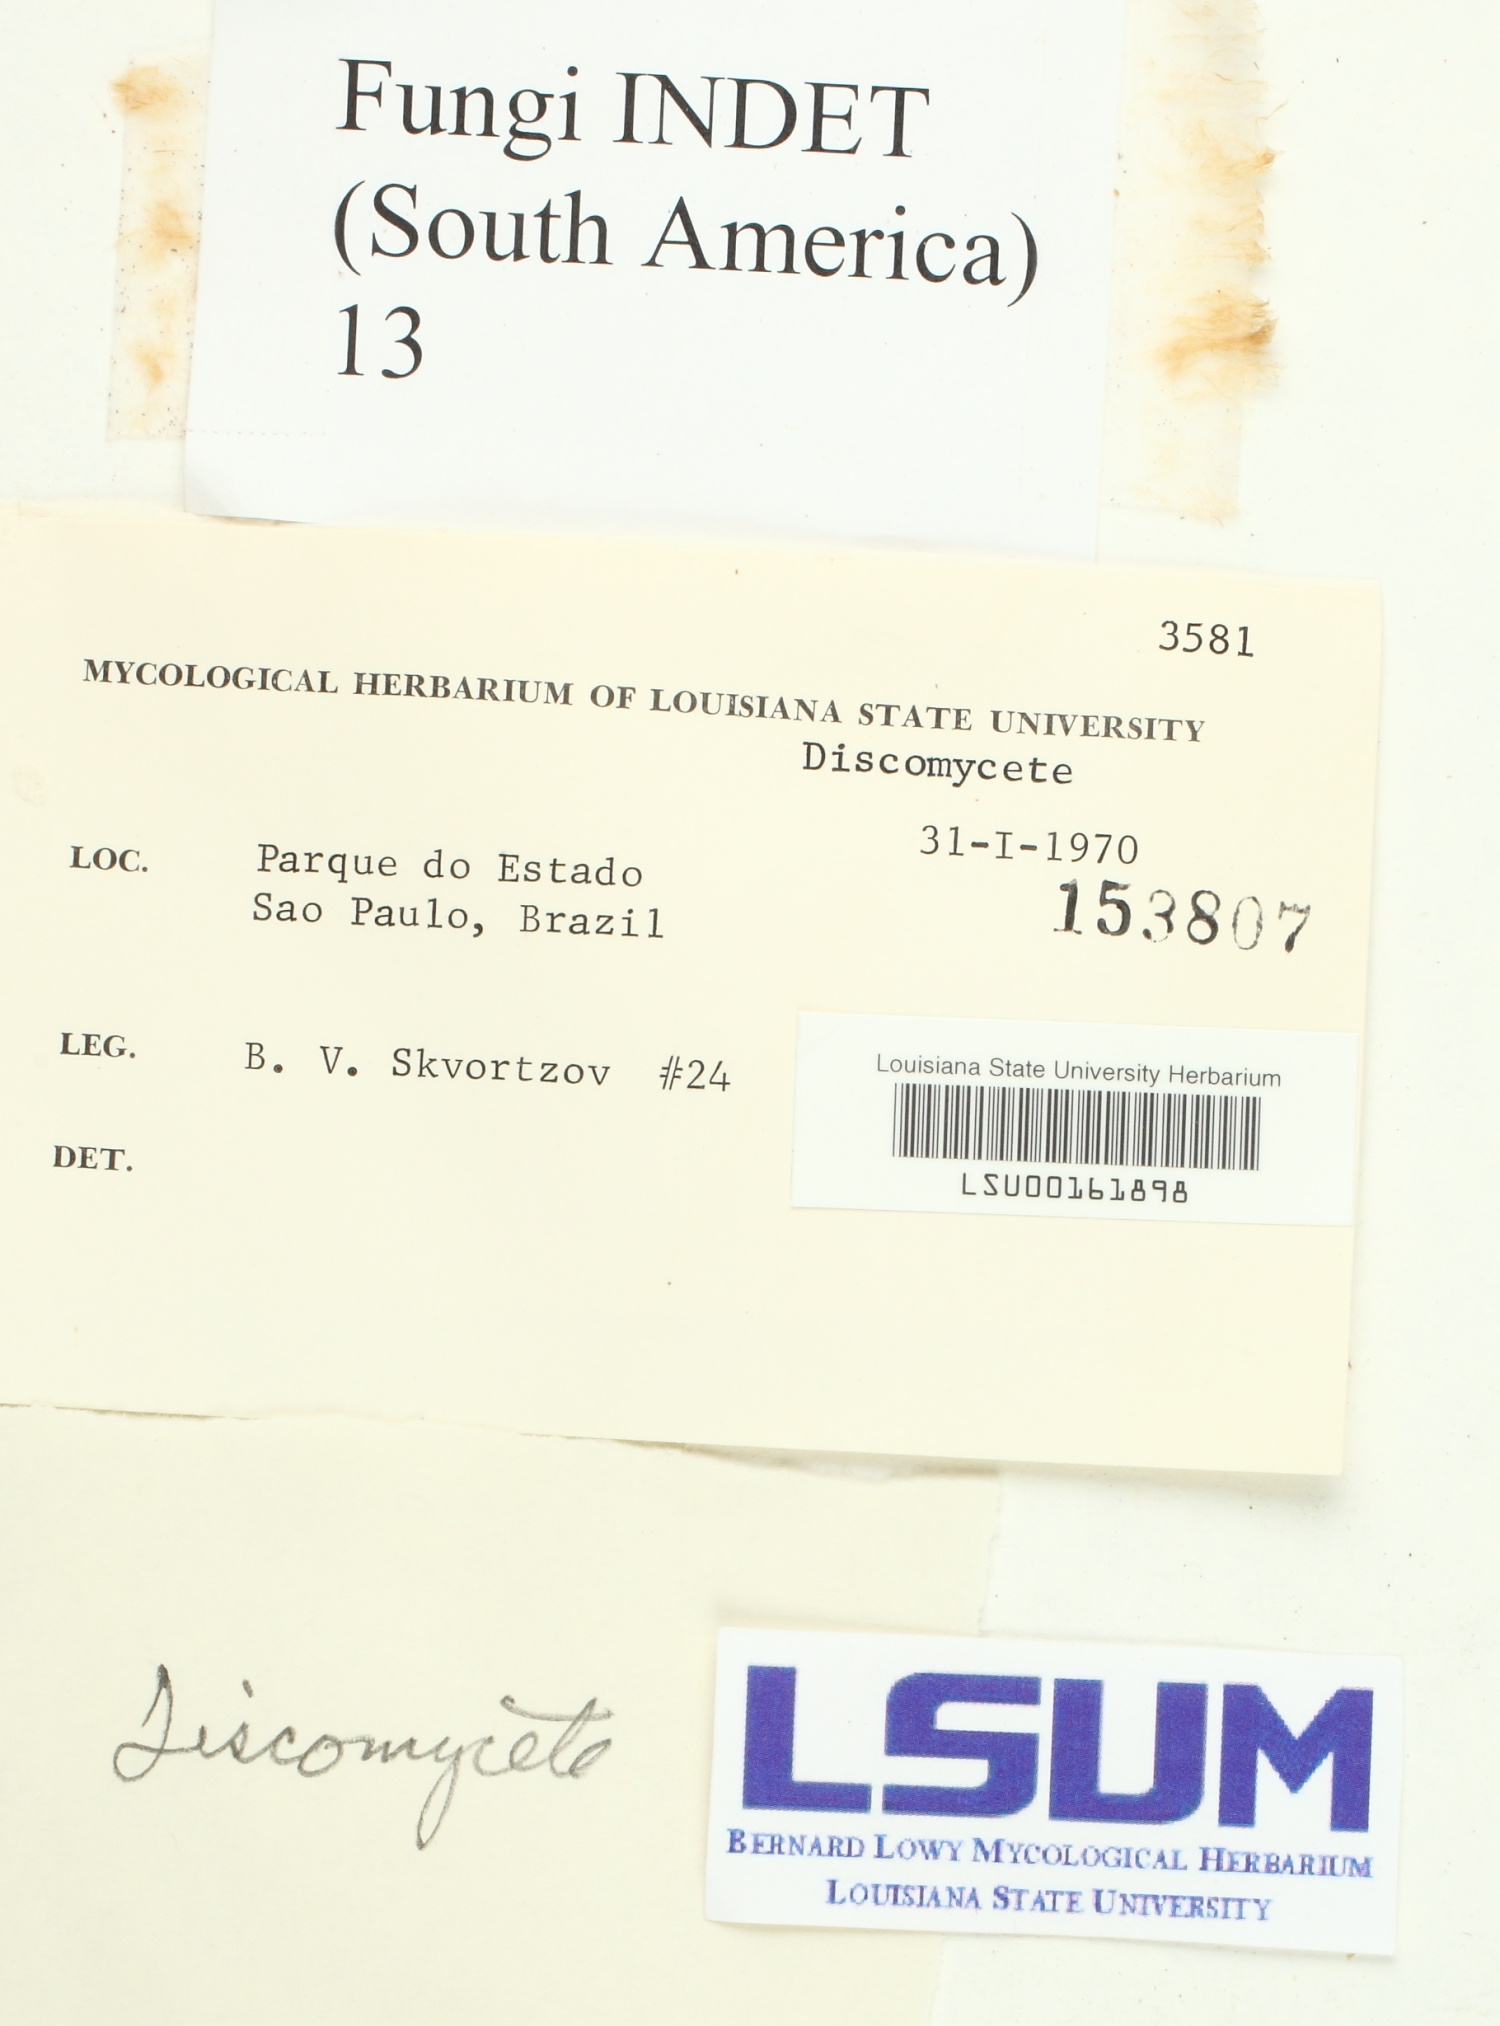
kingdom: Fungi
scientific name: Fungi
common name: Fungi
